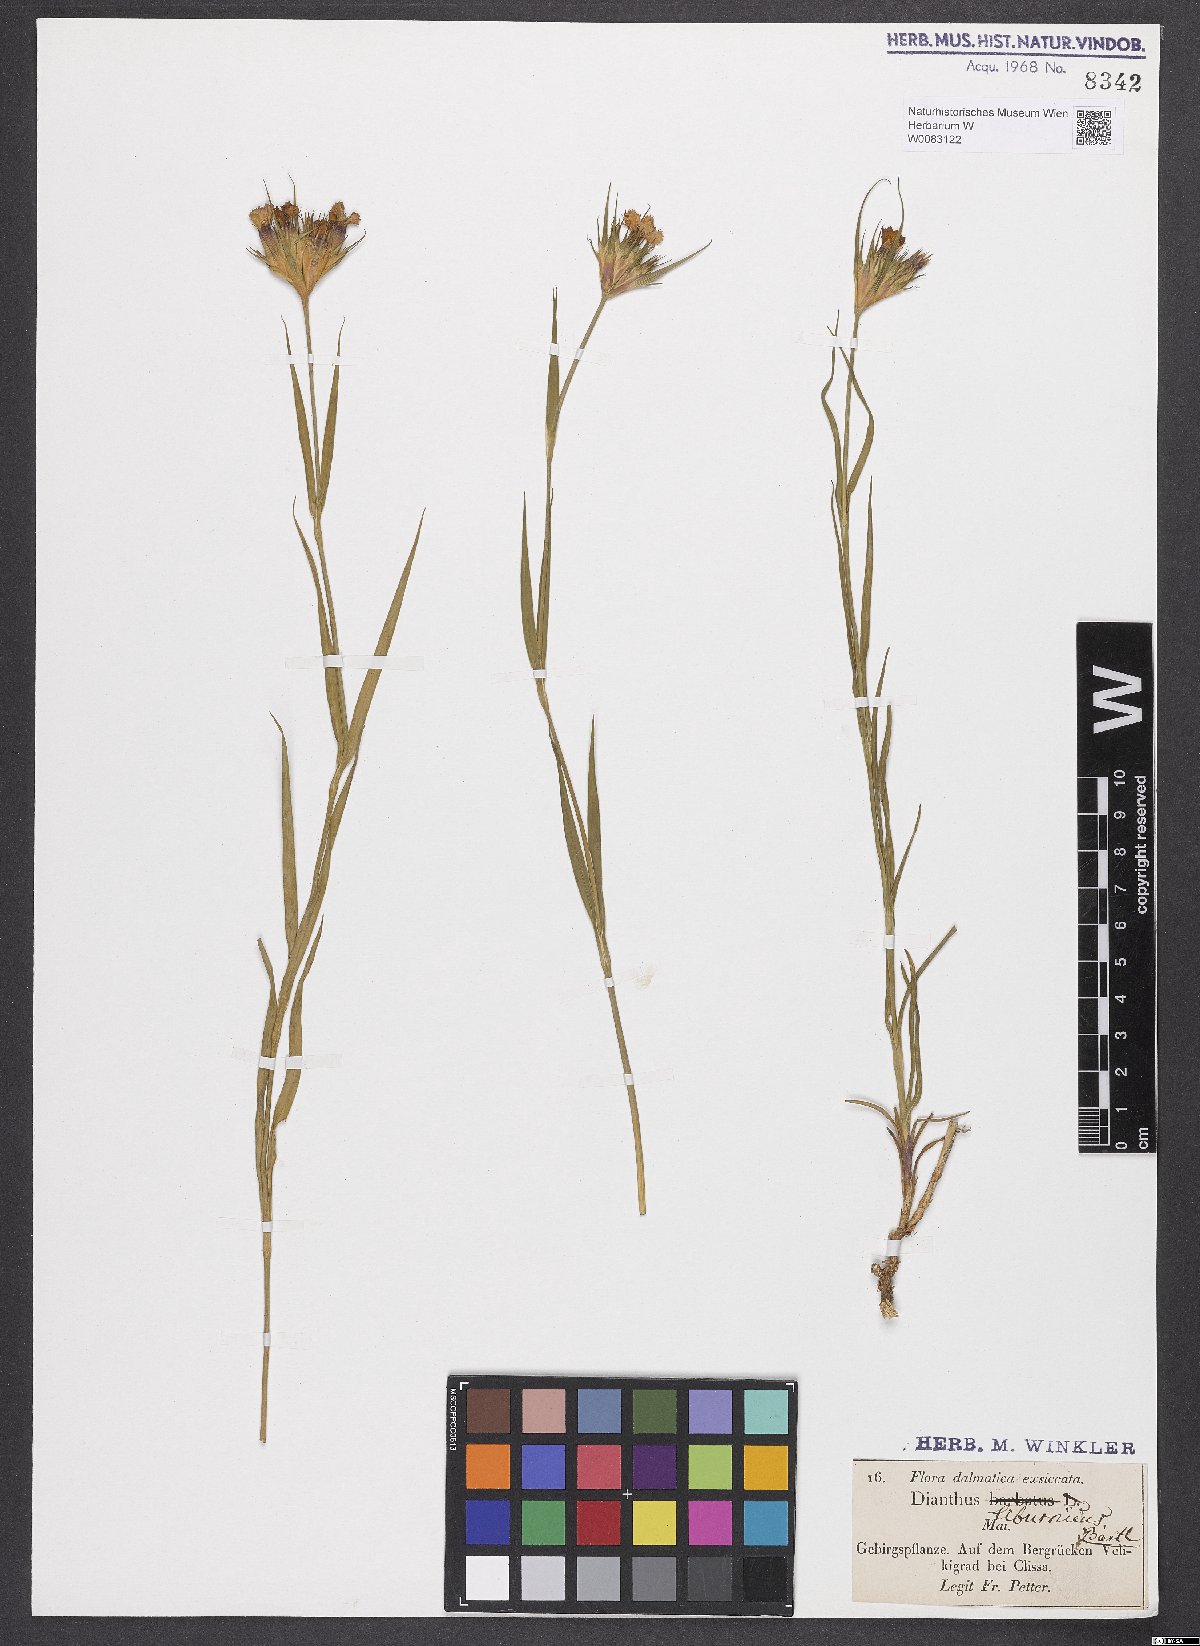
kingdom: Plantae
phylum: Tracheophyta
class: Magnoliopsida
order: Caryophyllales
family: Caryophyllaceae
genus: Dianthus
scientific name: Dianthus balbisii
